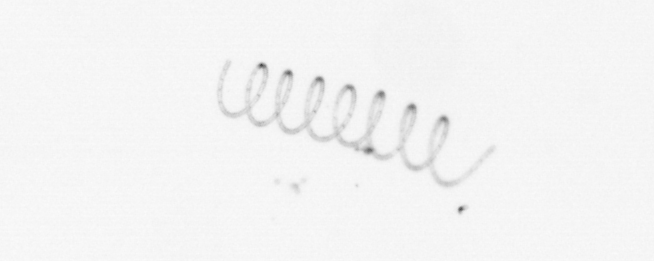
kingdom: Chromista
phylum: Ochrophyta
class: Bacillariophyceae
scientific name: Bacillariophyceae
